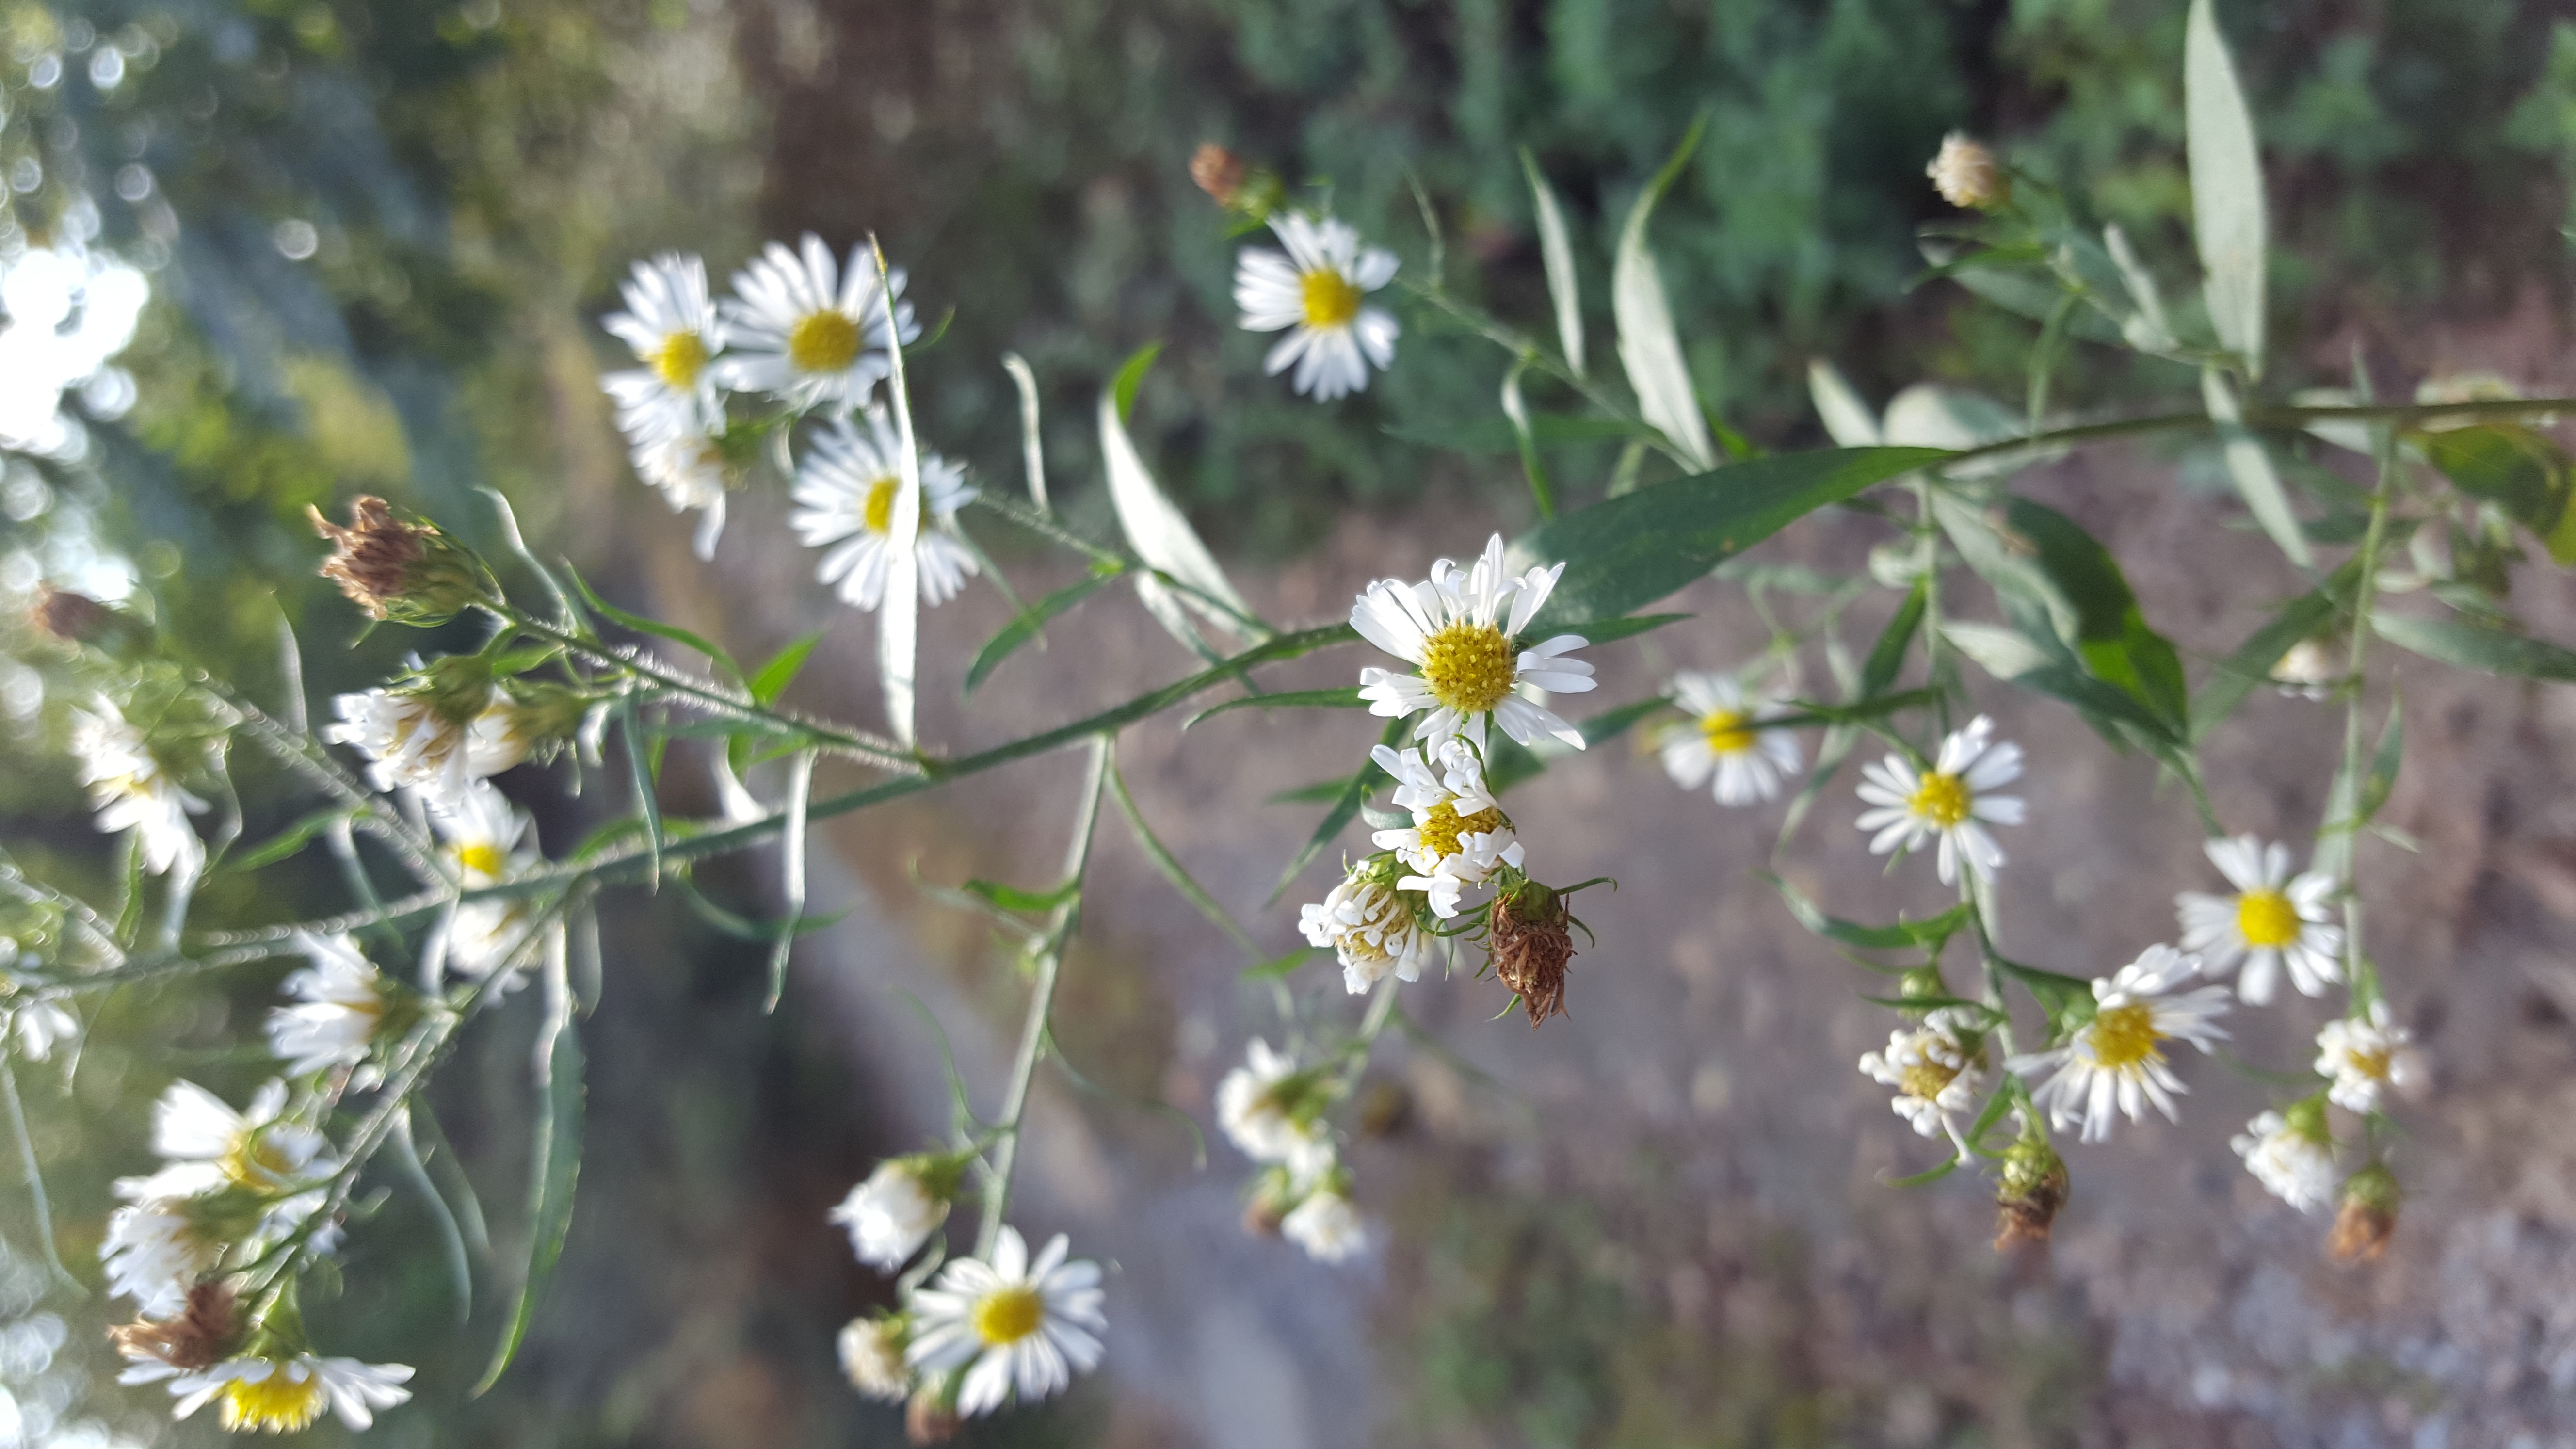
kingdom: Plantae
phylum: Tracheophyta
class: Magnoliopsida
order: Asterales
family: Asteraceae
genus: Symphyotrichum
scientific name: Symphyotrichum pilosum
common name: Serpentine Aster
